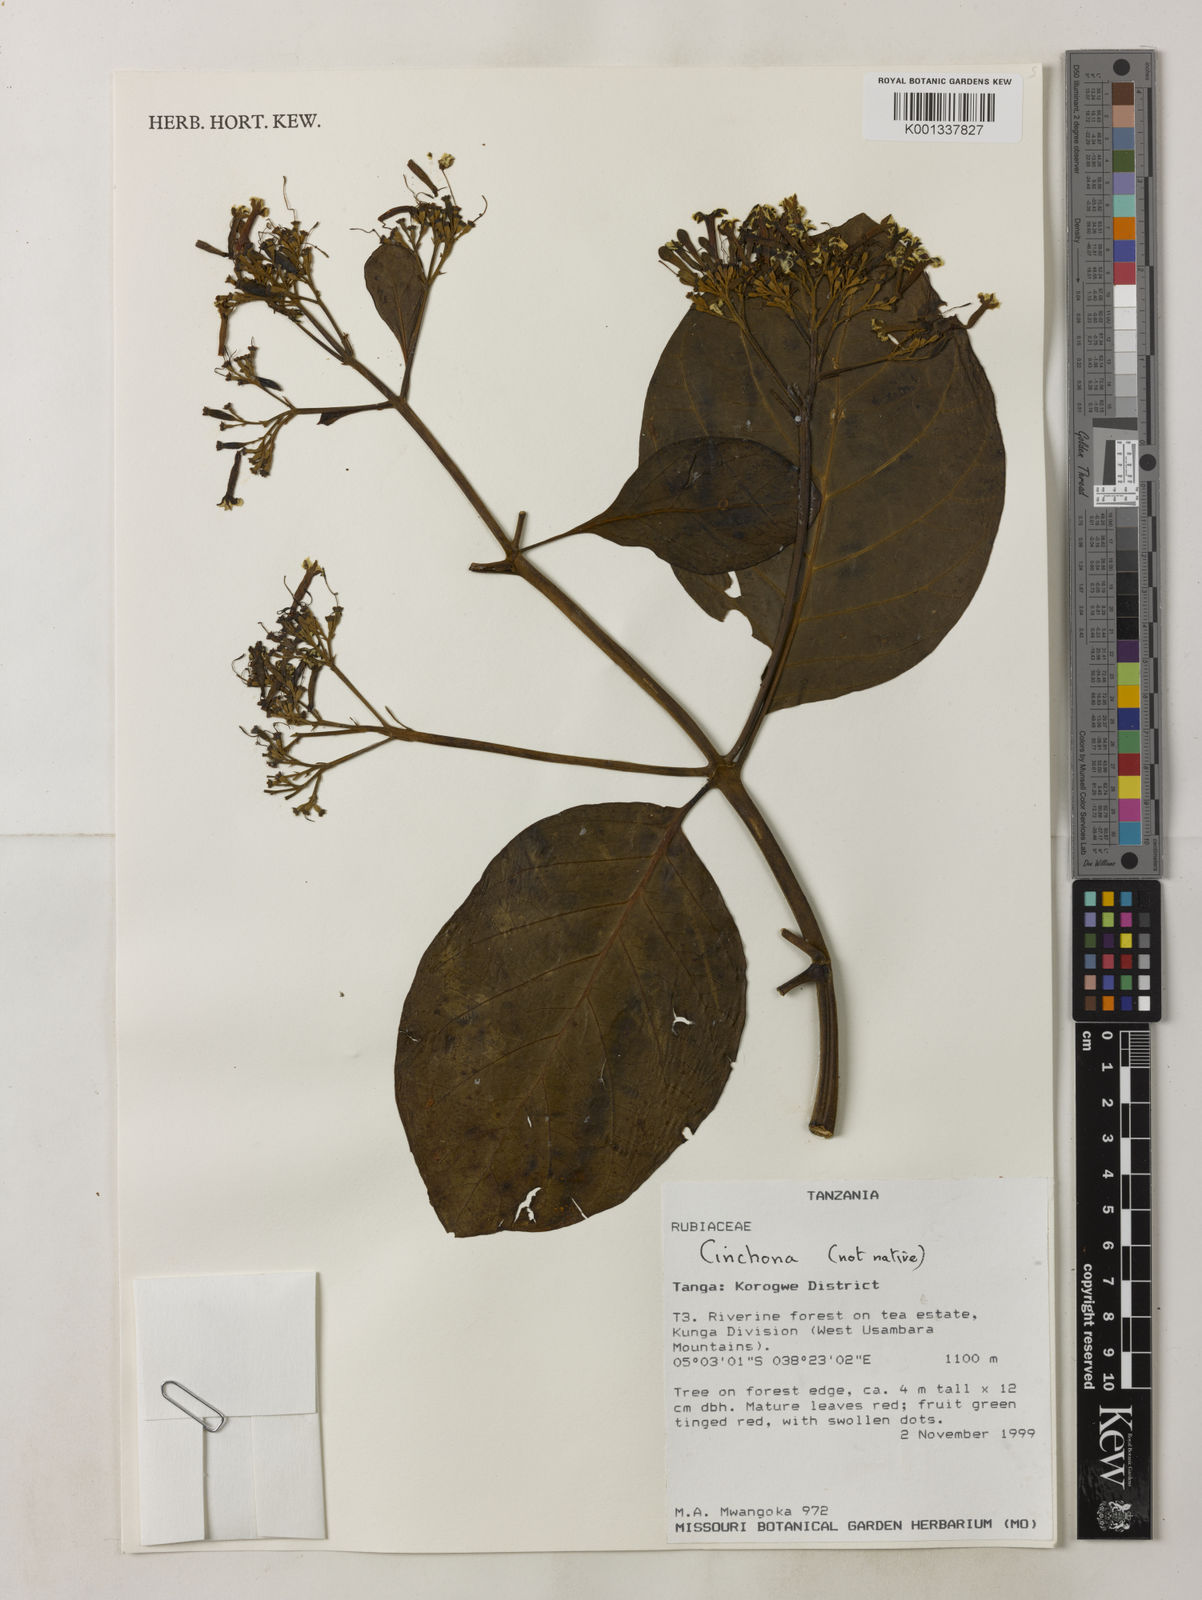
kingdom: Plantae
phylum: Tracheophyta
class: Magnoliopsida
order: Gentianales
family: Rubiaceae
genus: Cinchona
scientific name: Cinchona
